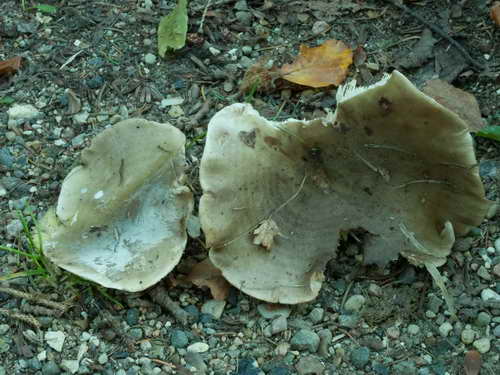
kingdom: Fungi
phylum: Basidiomycota
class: Agaricomycetes
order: Russulales
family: Russulaceae
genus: Lactarius
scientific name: Lactarius fluens
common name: lysrandet mælkehat
